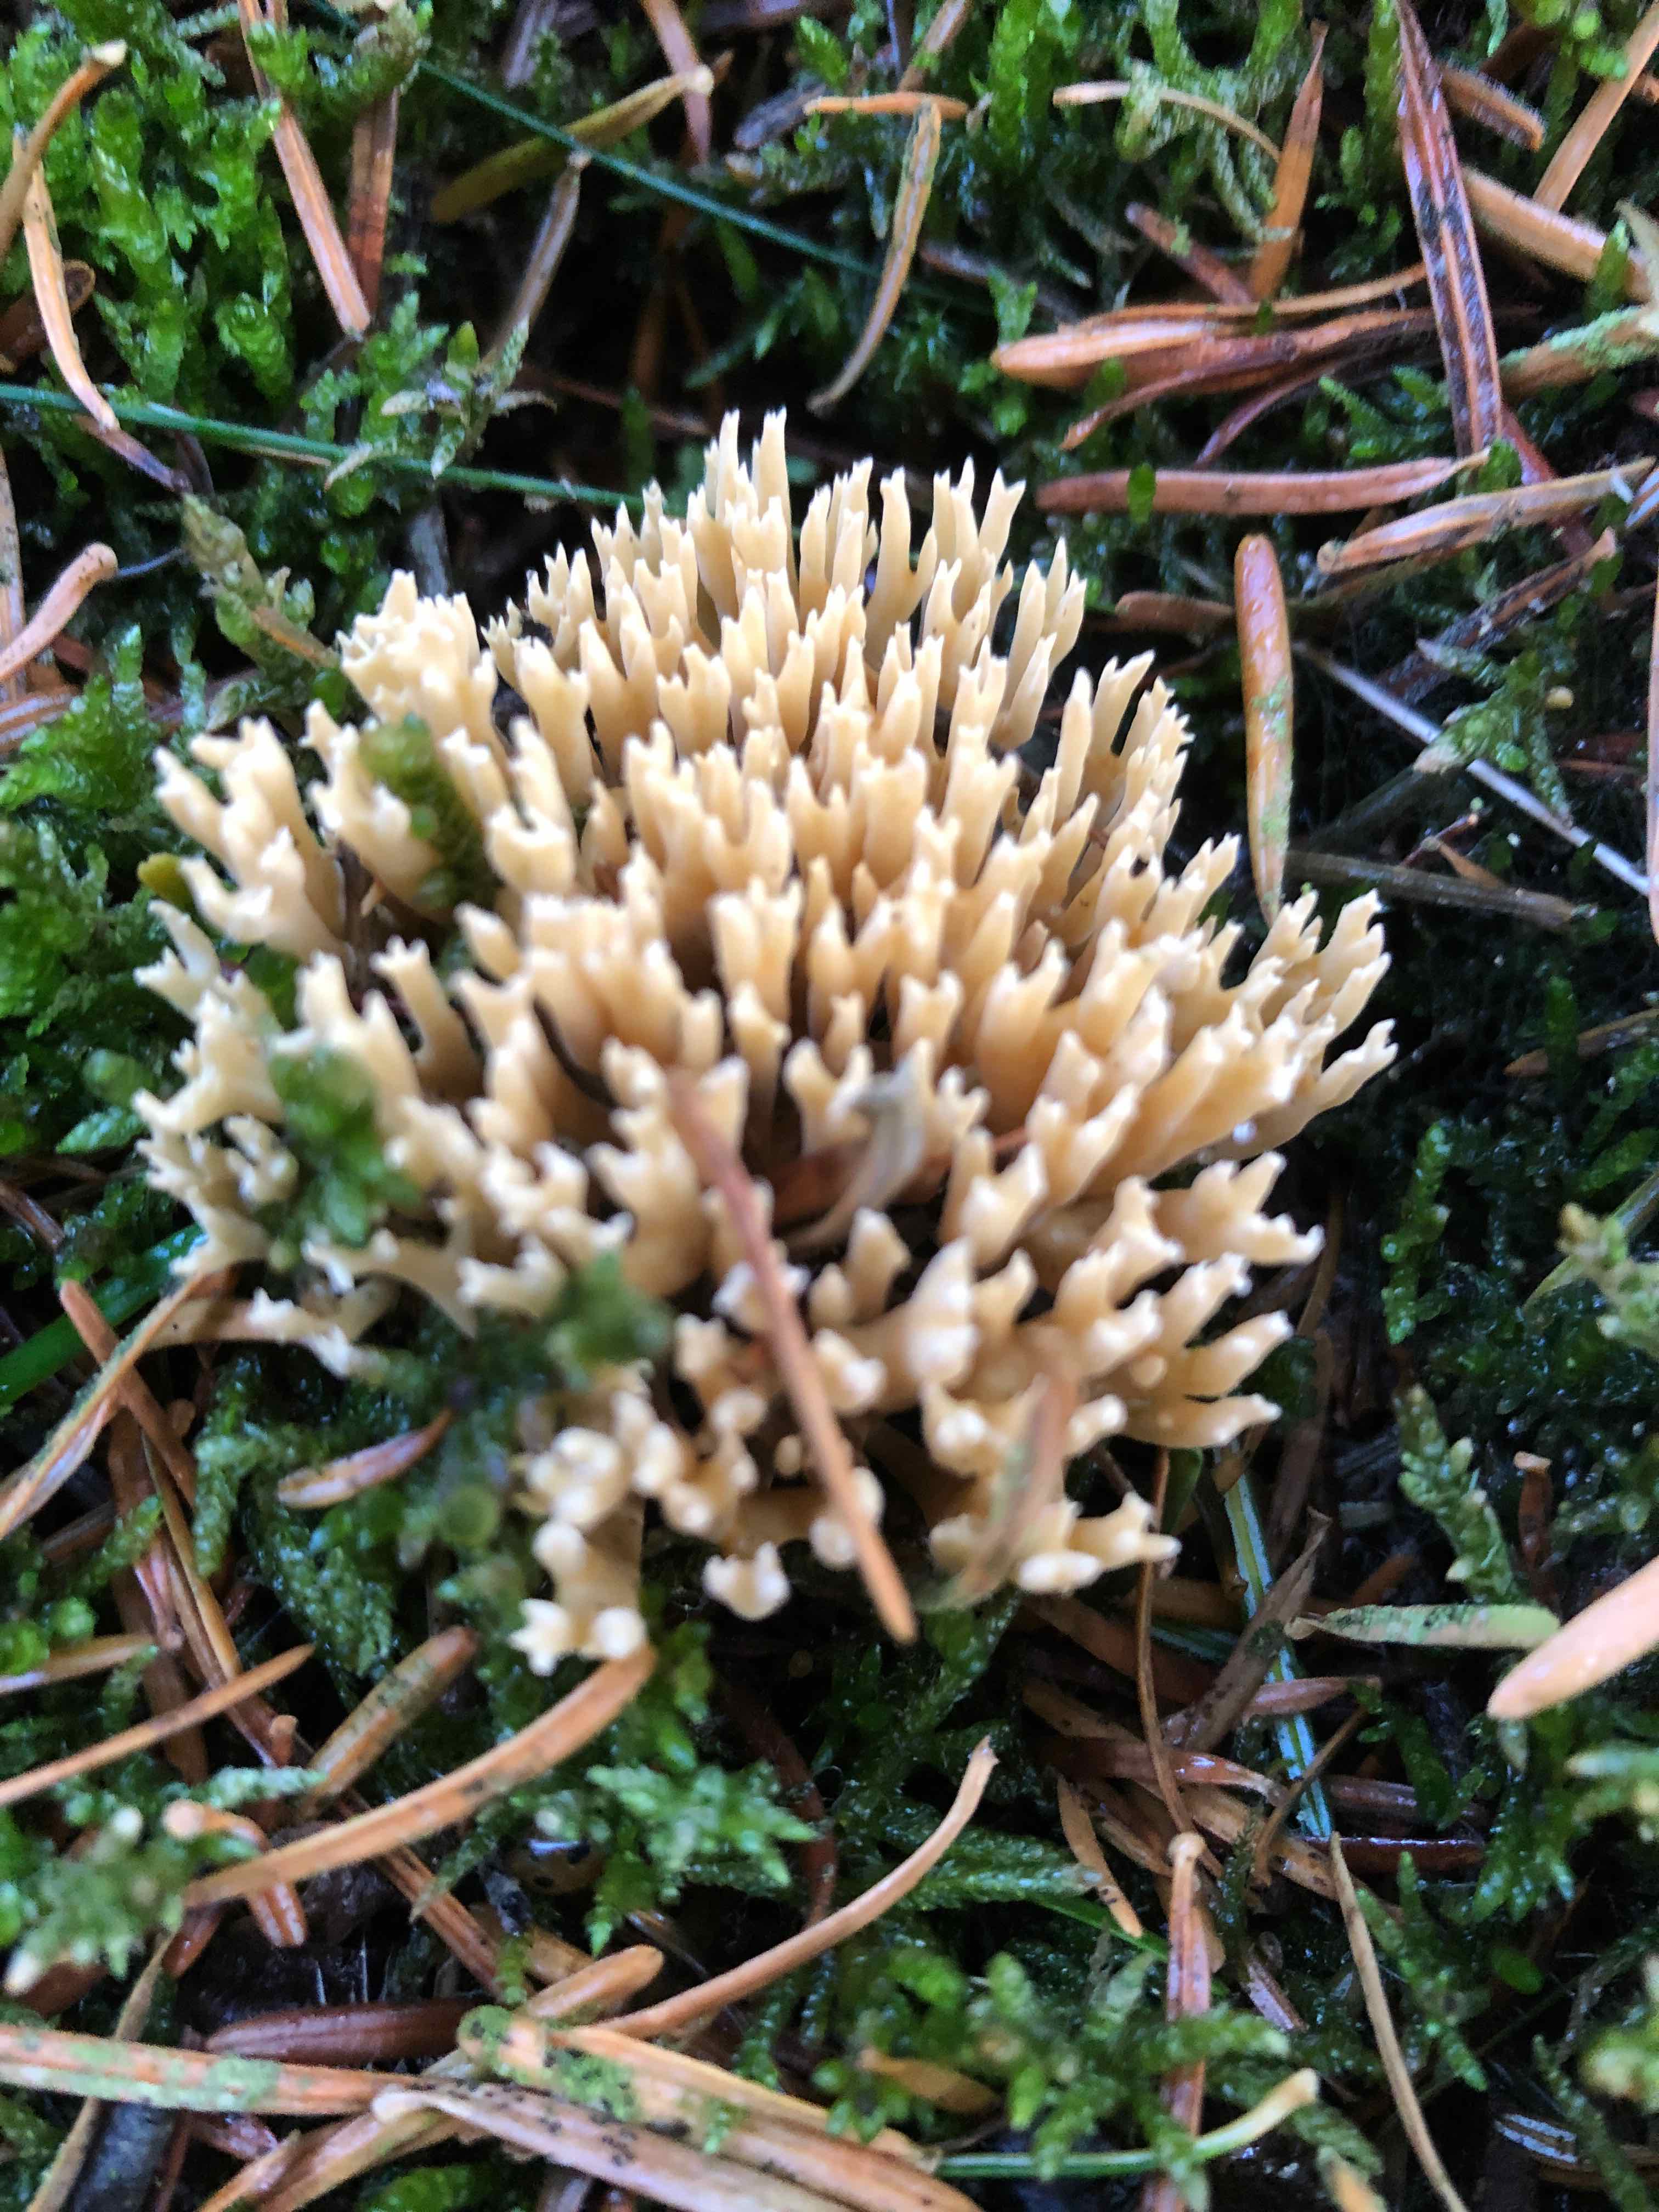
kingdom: Fungi
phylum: Basidiomycota
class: Agaricomycetes
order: Gomphales
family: Gomphaceae
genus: Phaeoclavulina
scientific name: Phaeoclavulina eumorpha
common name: gran-koralsvamp
